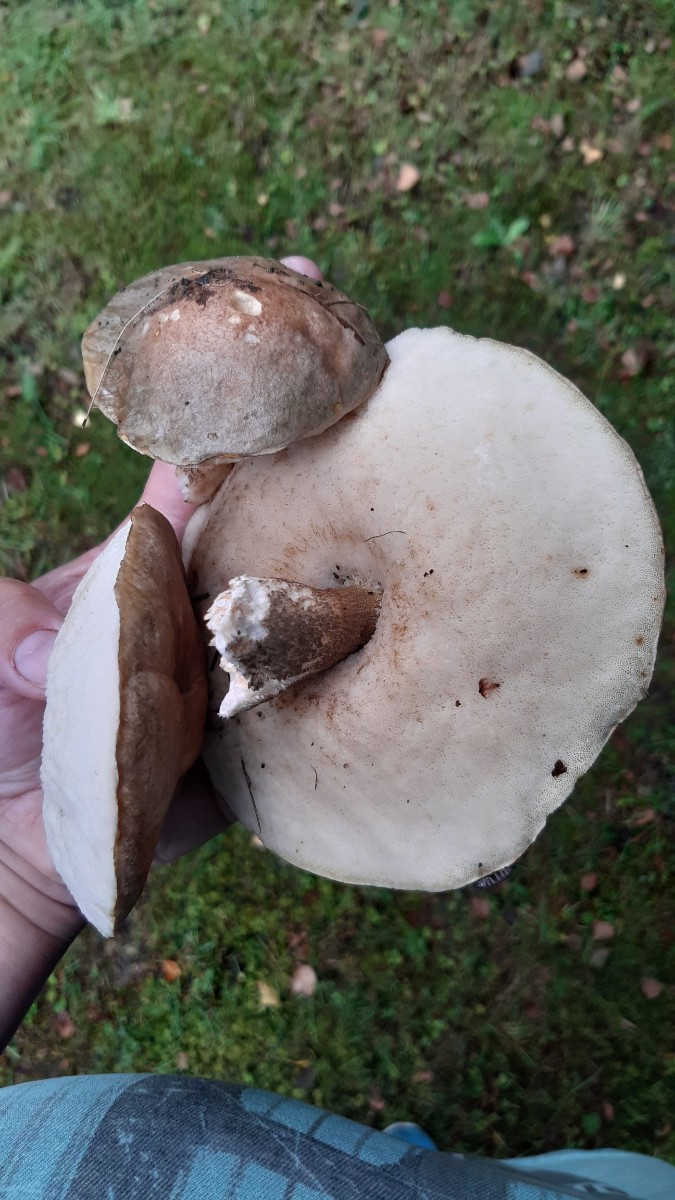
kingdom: Fungi
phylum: Basidiomycota
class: Agaricomycetes
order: Boletales
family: Boletaceae
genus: Leccinum
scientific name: Leccinum
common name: skælrørhat
